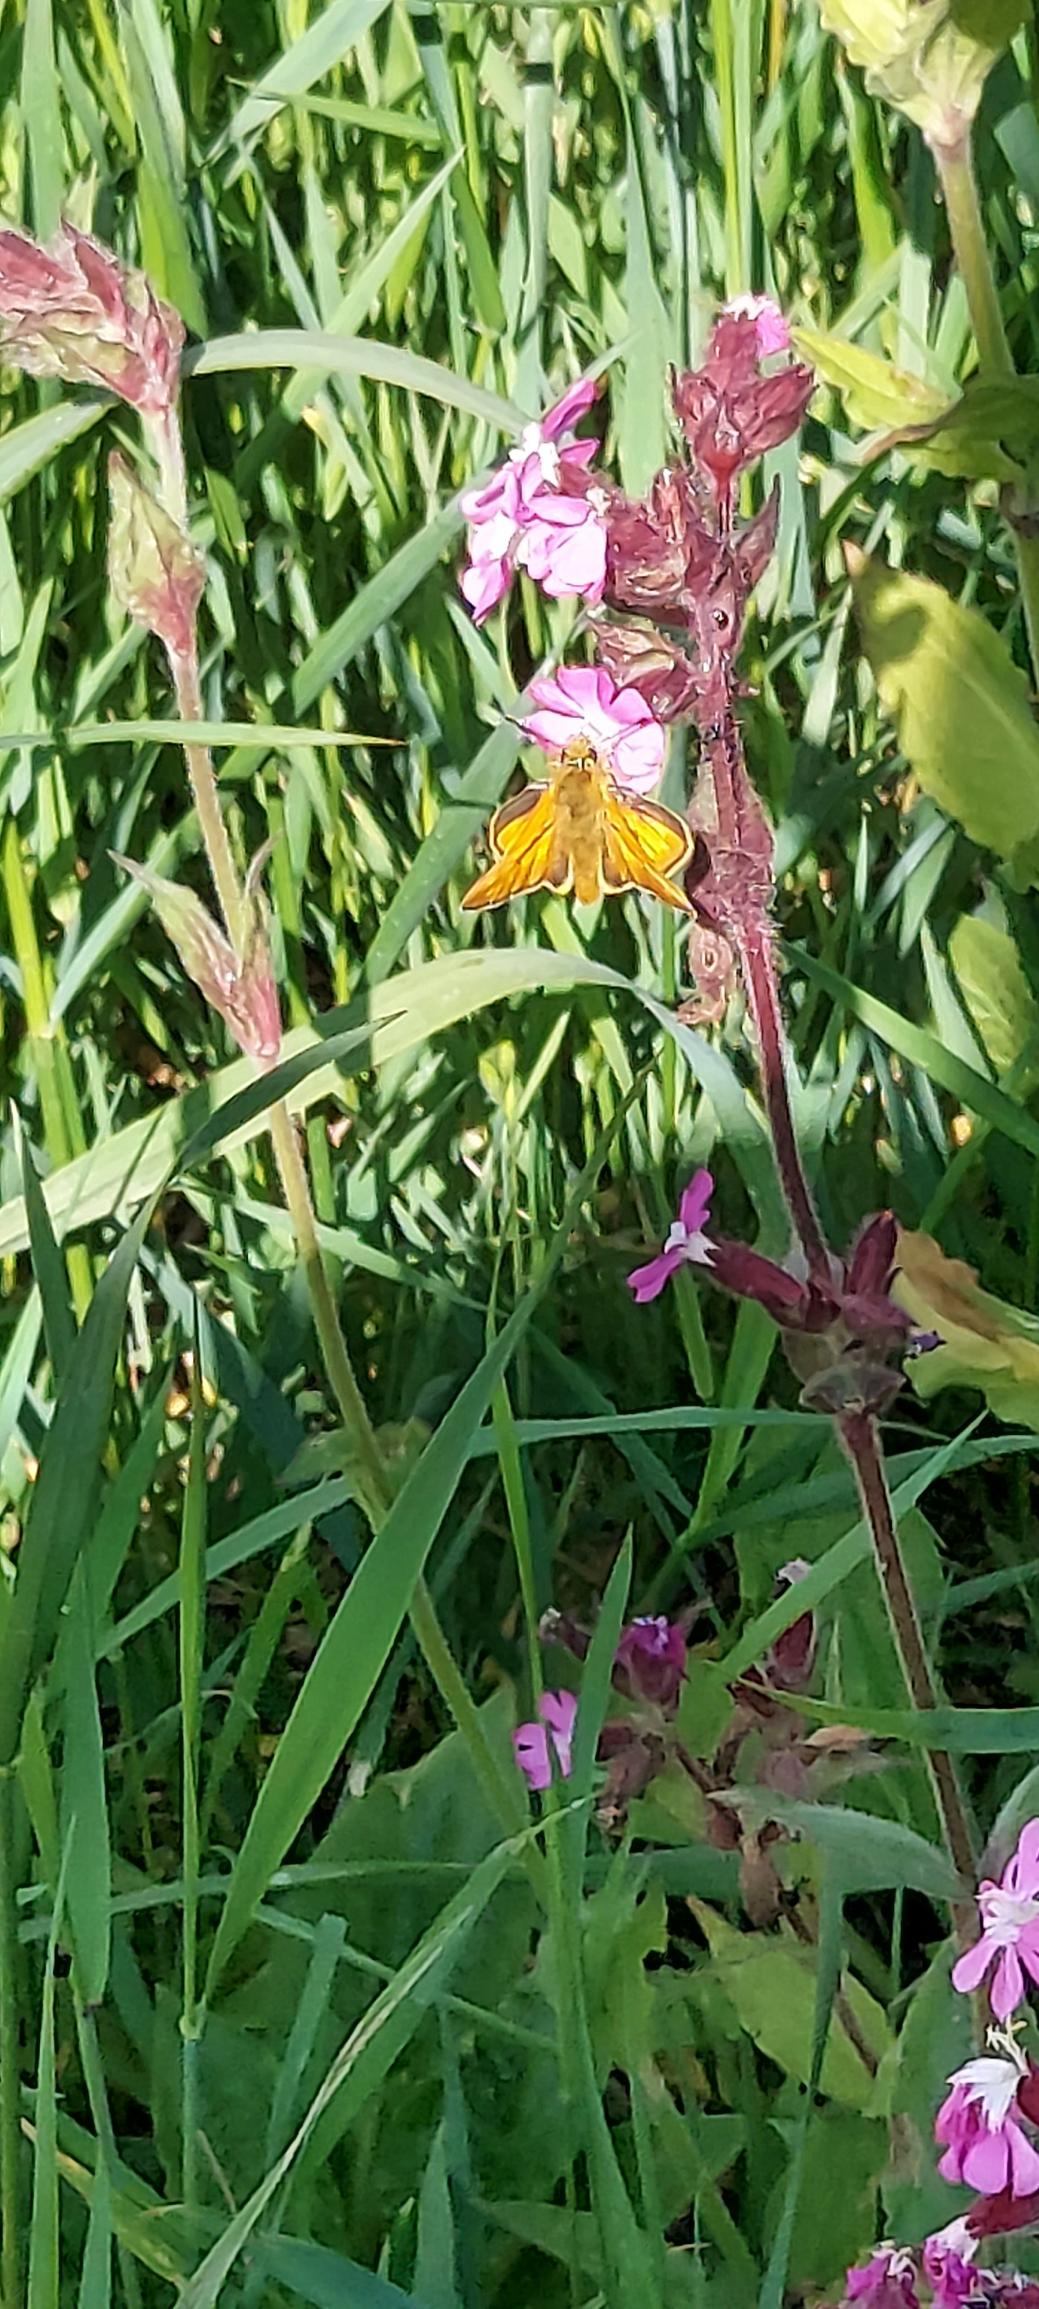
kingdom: Animalia
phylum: Arthropoda
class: Insecta
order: Lepidoptera
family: Hesperiidae
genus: Ochlodes
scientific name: Ochlodes venata
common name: Stor bredpande
